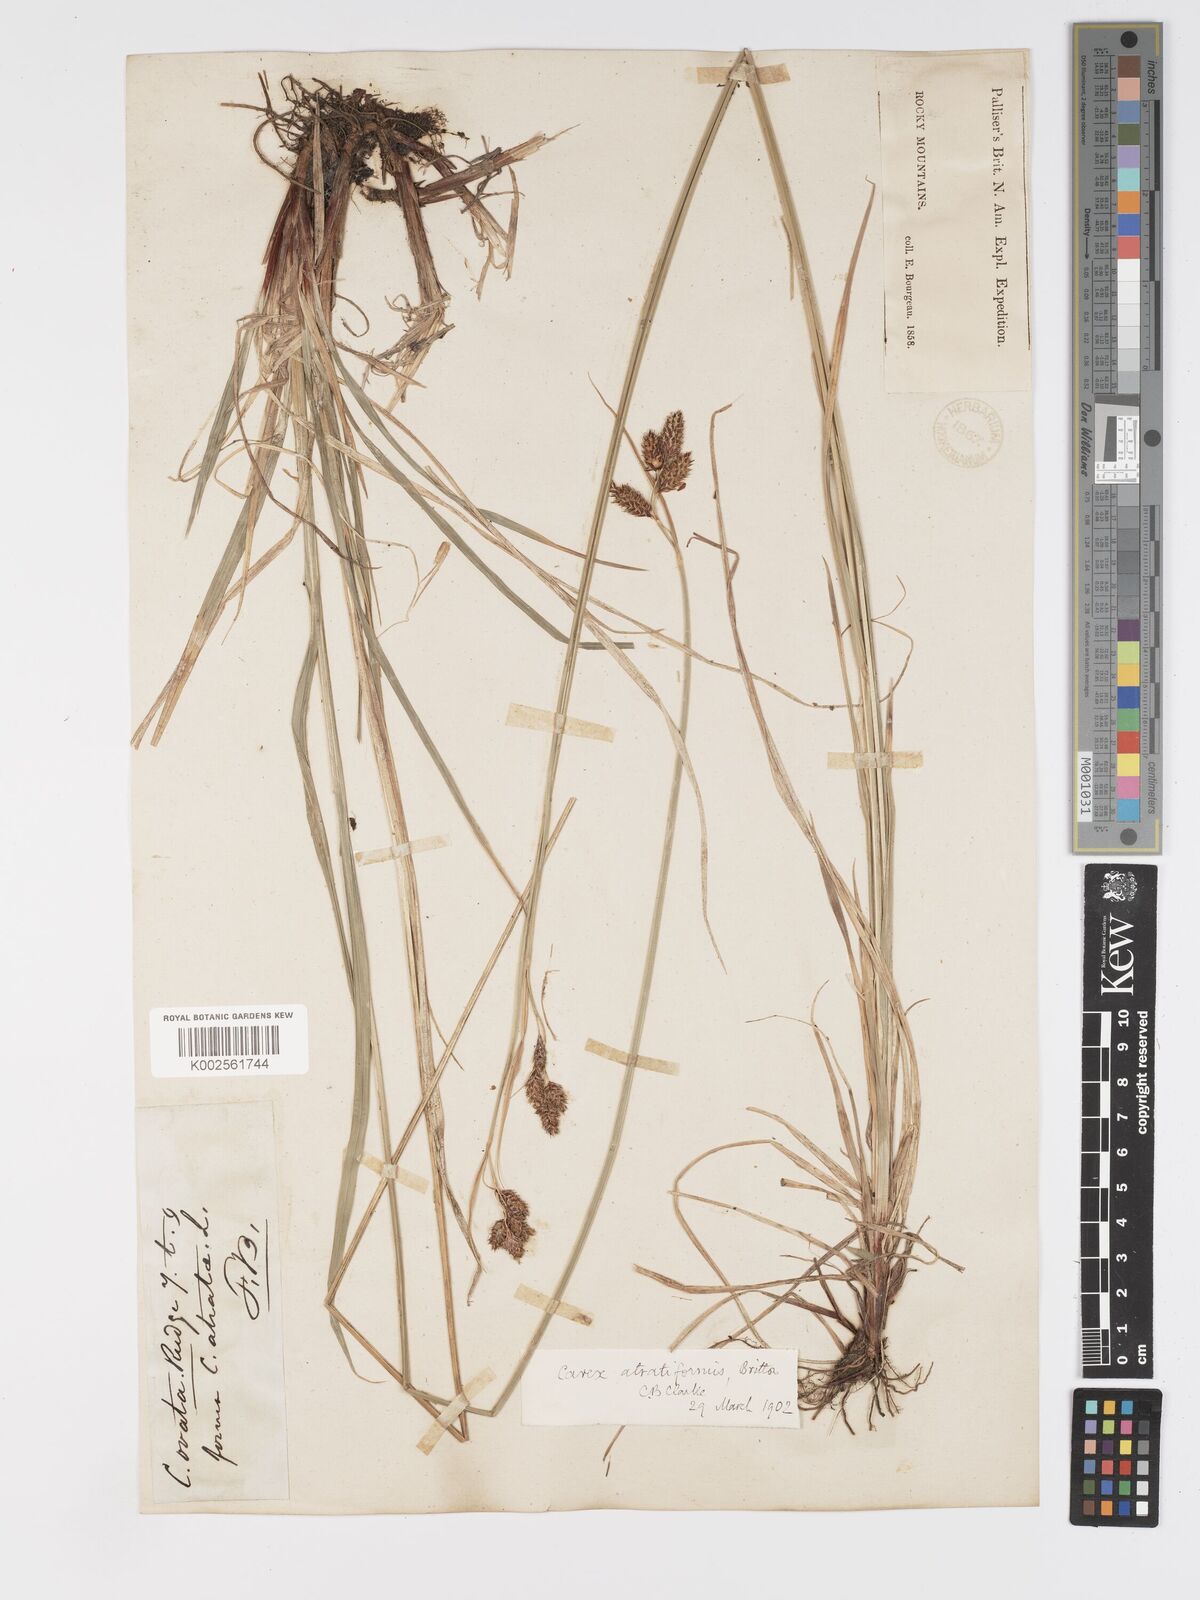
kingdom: Plantae
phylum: Tracheophyta
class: Liliopsida
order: Poales
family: Cyperaceae
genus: Carex
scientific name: Carex atratiformis
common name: Black sedge
